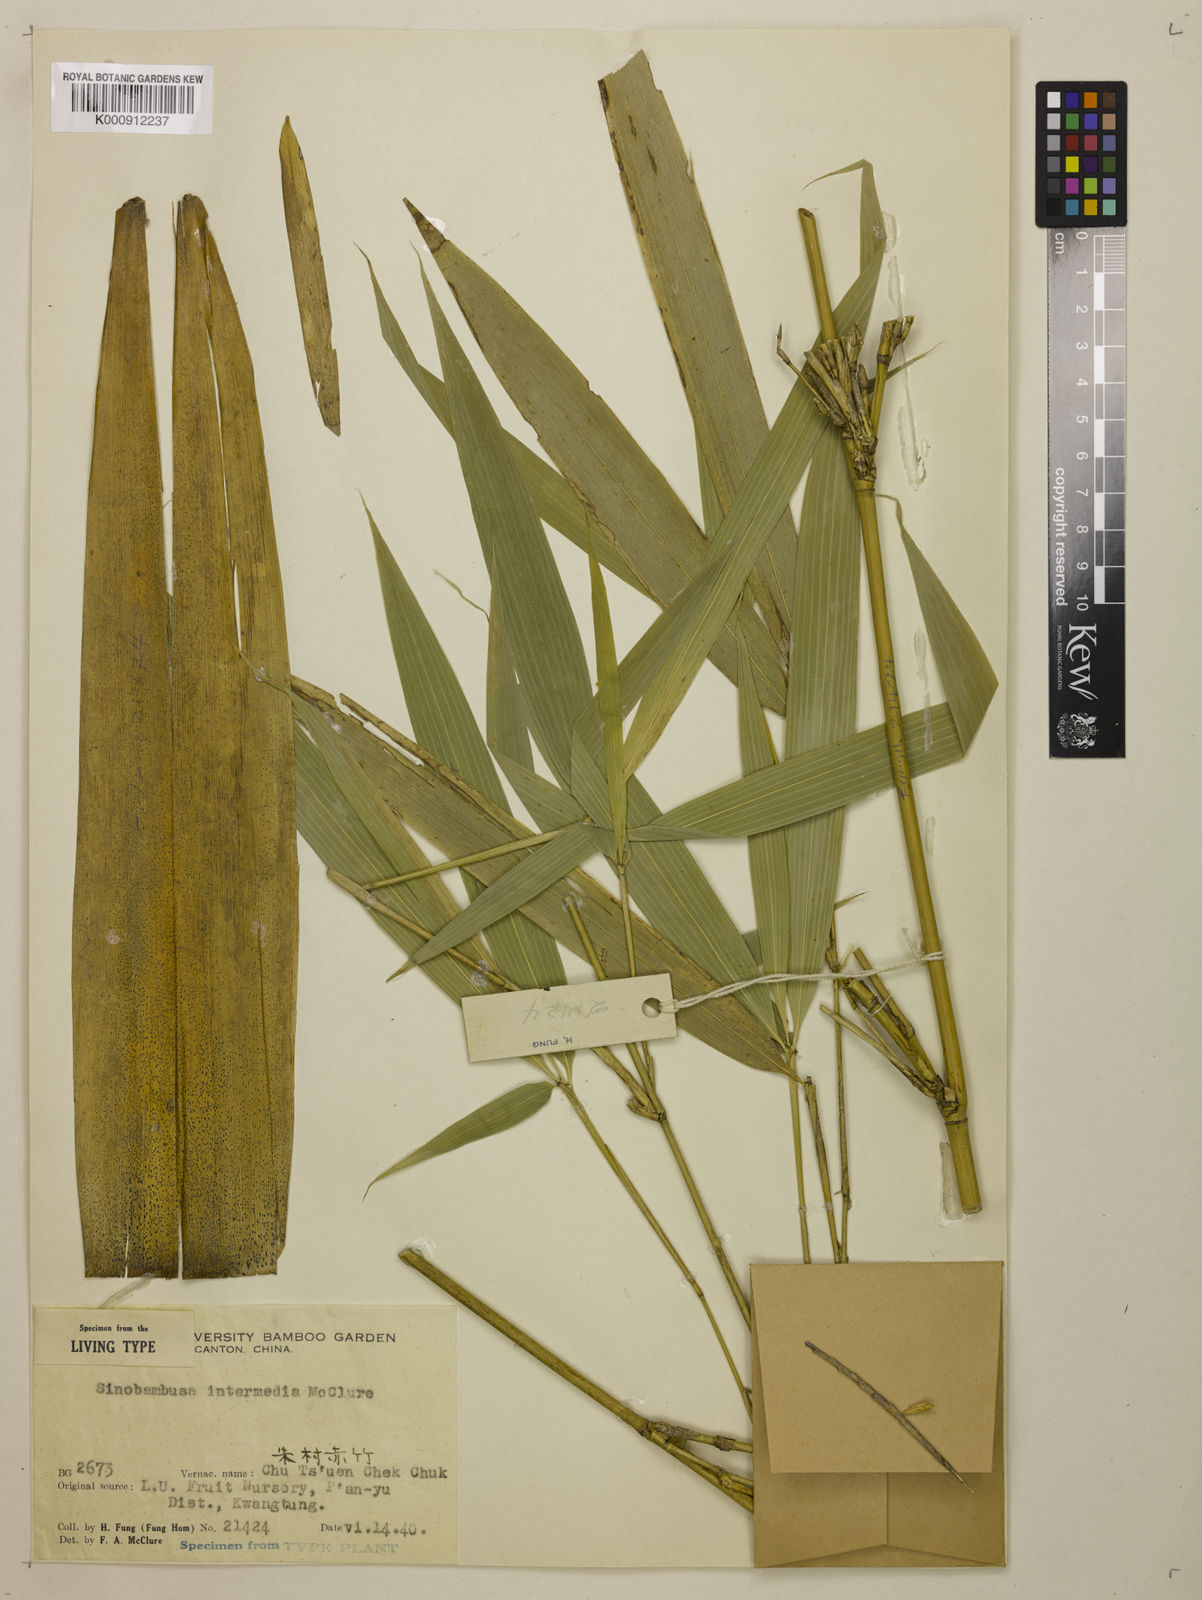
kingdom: Plantae
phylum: Tracheophyta
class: Liliopsida
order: Poales
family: Poaceae
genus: Sinobambusa
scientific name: Sinobambusa intermedia
